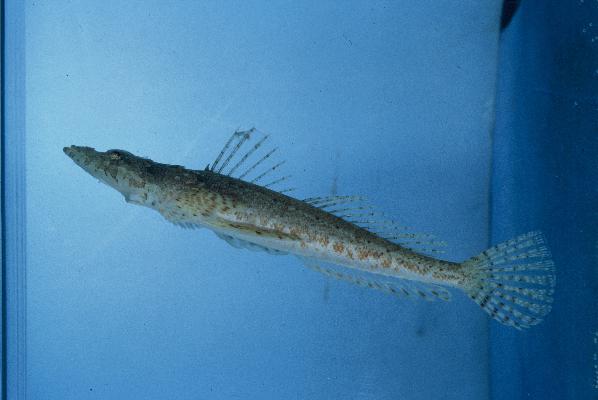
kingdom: Animalia
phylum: Chordata
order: Scorpaeniformes
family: Platycephalidae
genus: Sunagocia
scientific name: Sunagocia otaitensis
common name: Fringelip flathead
